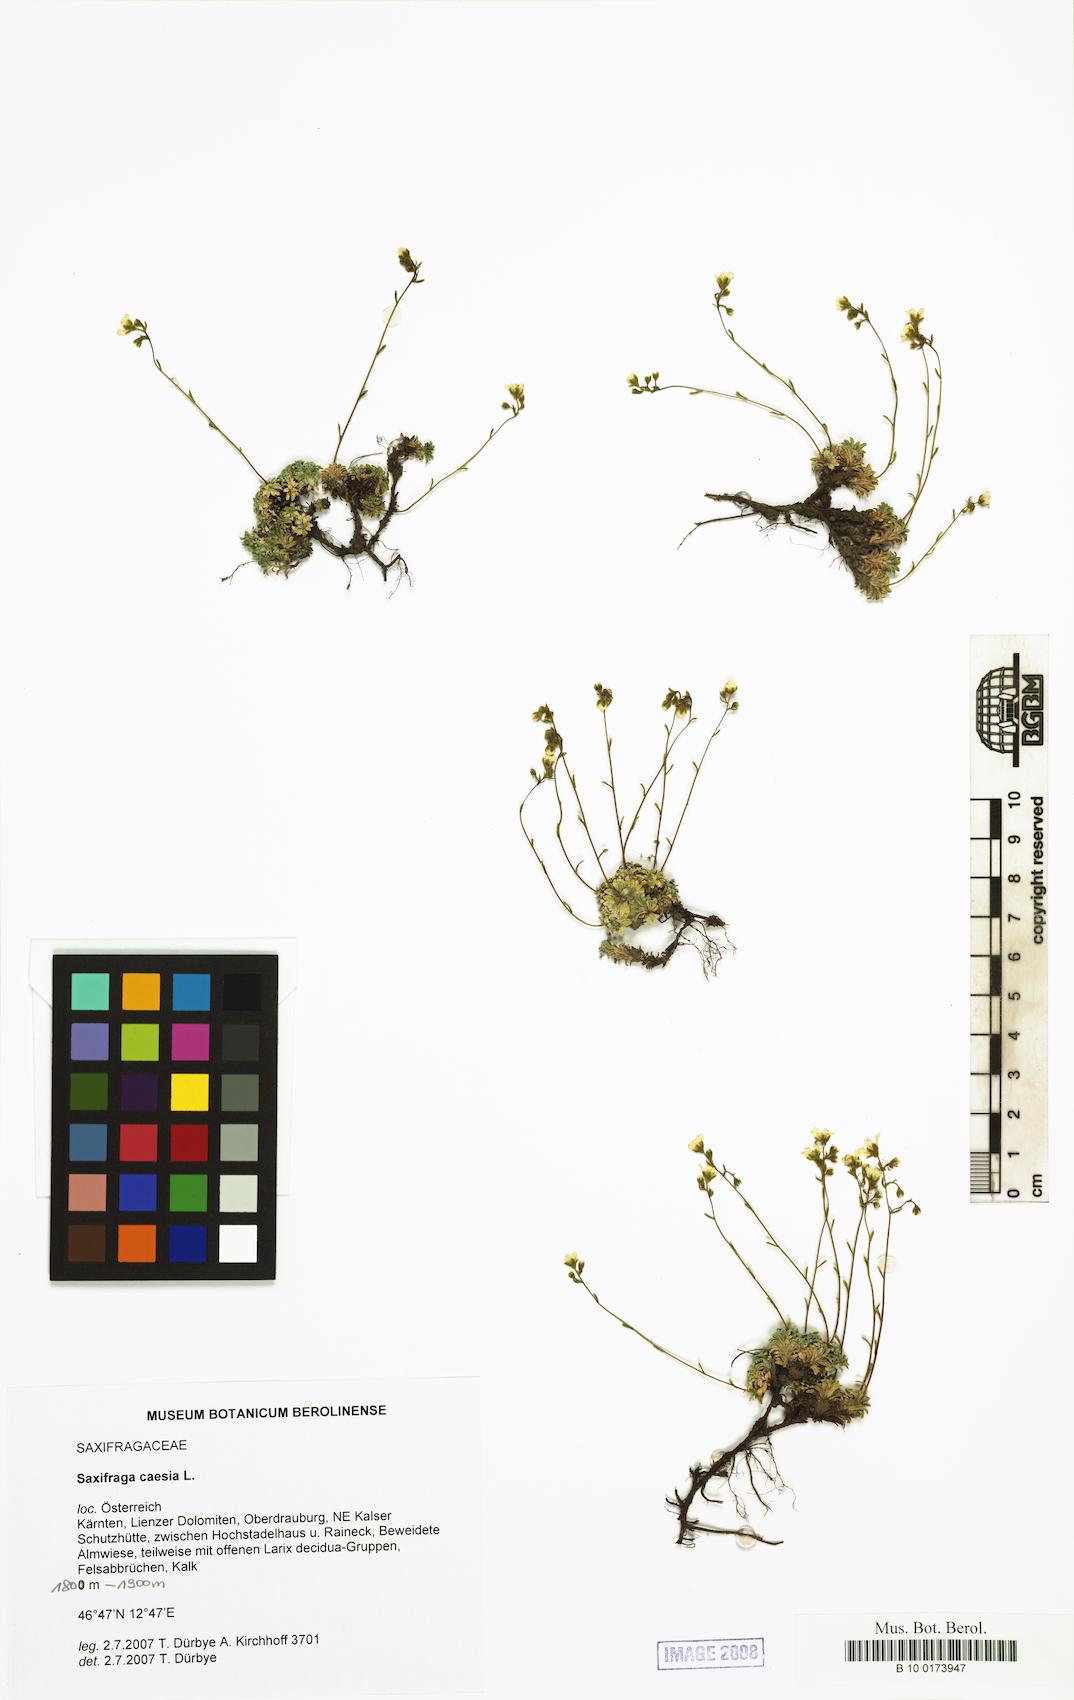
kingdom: Plantae
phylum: Tracheophyta
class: Magnoliopsida
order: Saxifragales
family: Saxifragaceae
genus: Saxifraga
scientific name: Saxifraga caesia
